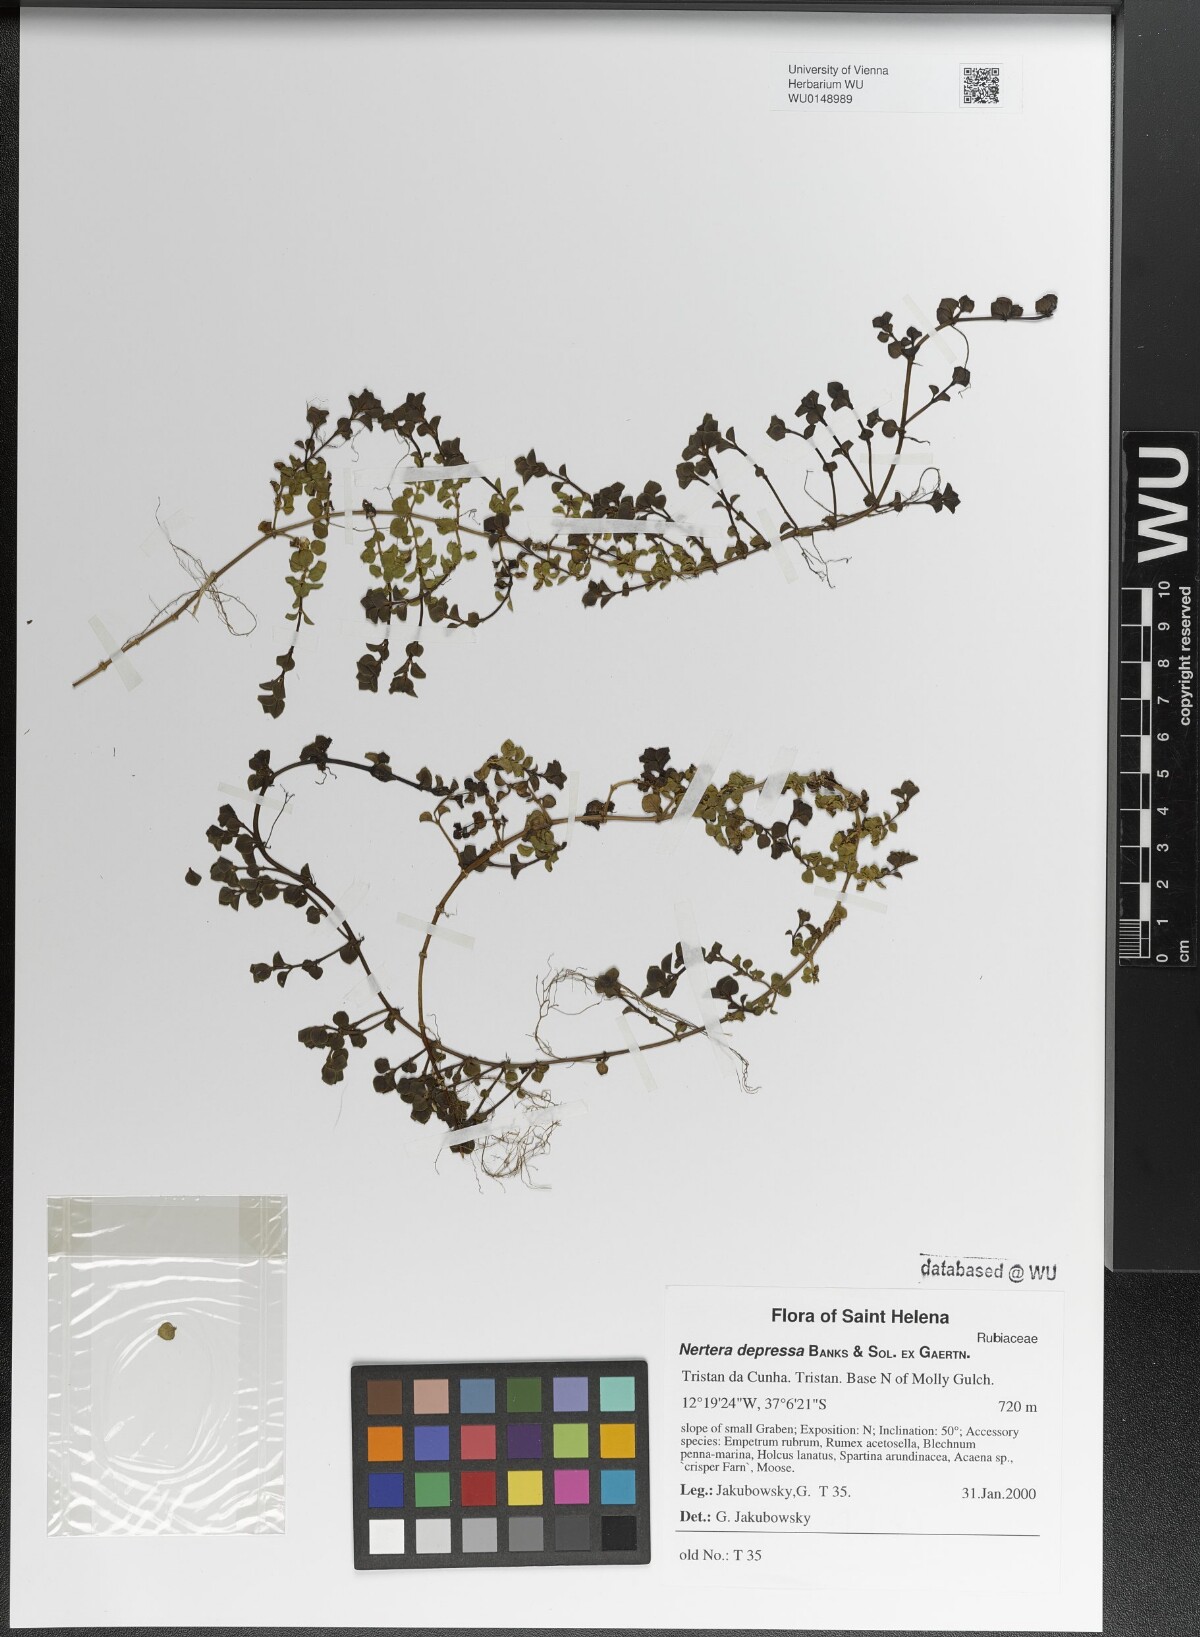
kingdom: Plantae
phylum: Tracheophyta
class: Magnoliopsida
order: Gentianales
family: Rubiaceae
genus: Nertera
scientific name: Nertera granadensis
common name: Beadplant
